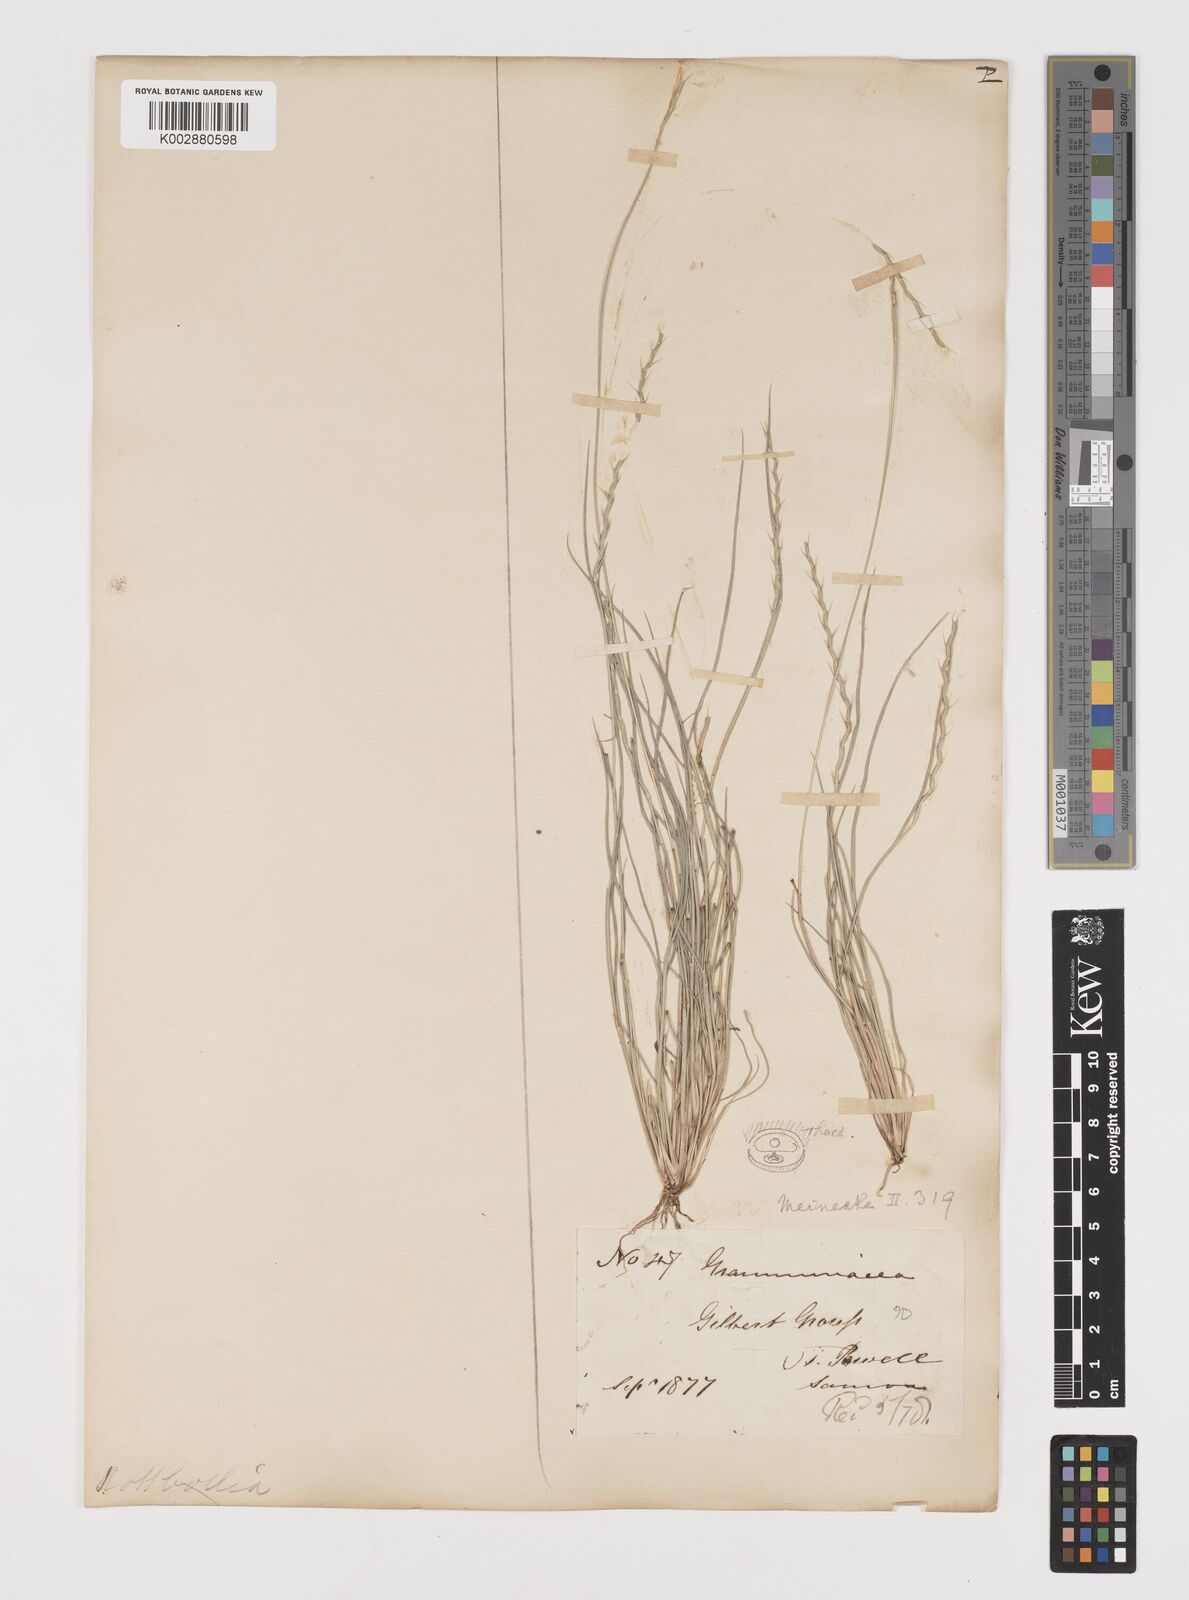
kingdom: Plantae
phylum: Tracheophyta
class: Liliopsida
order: Poales
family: Poaceae
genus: Lepturus
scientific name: Lepturus repens
